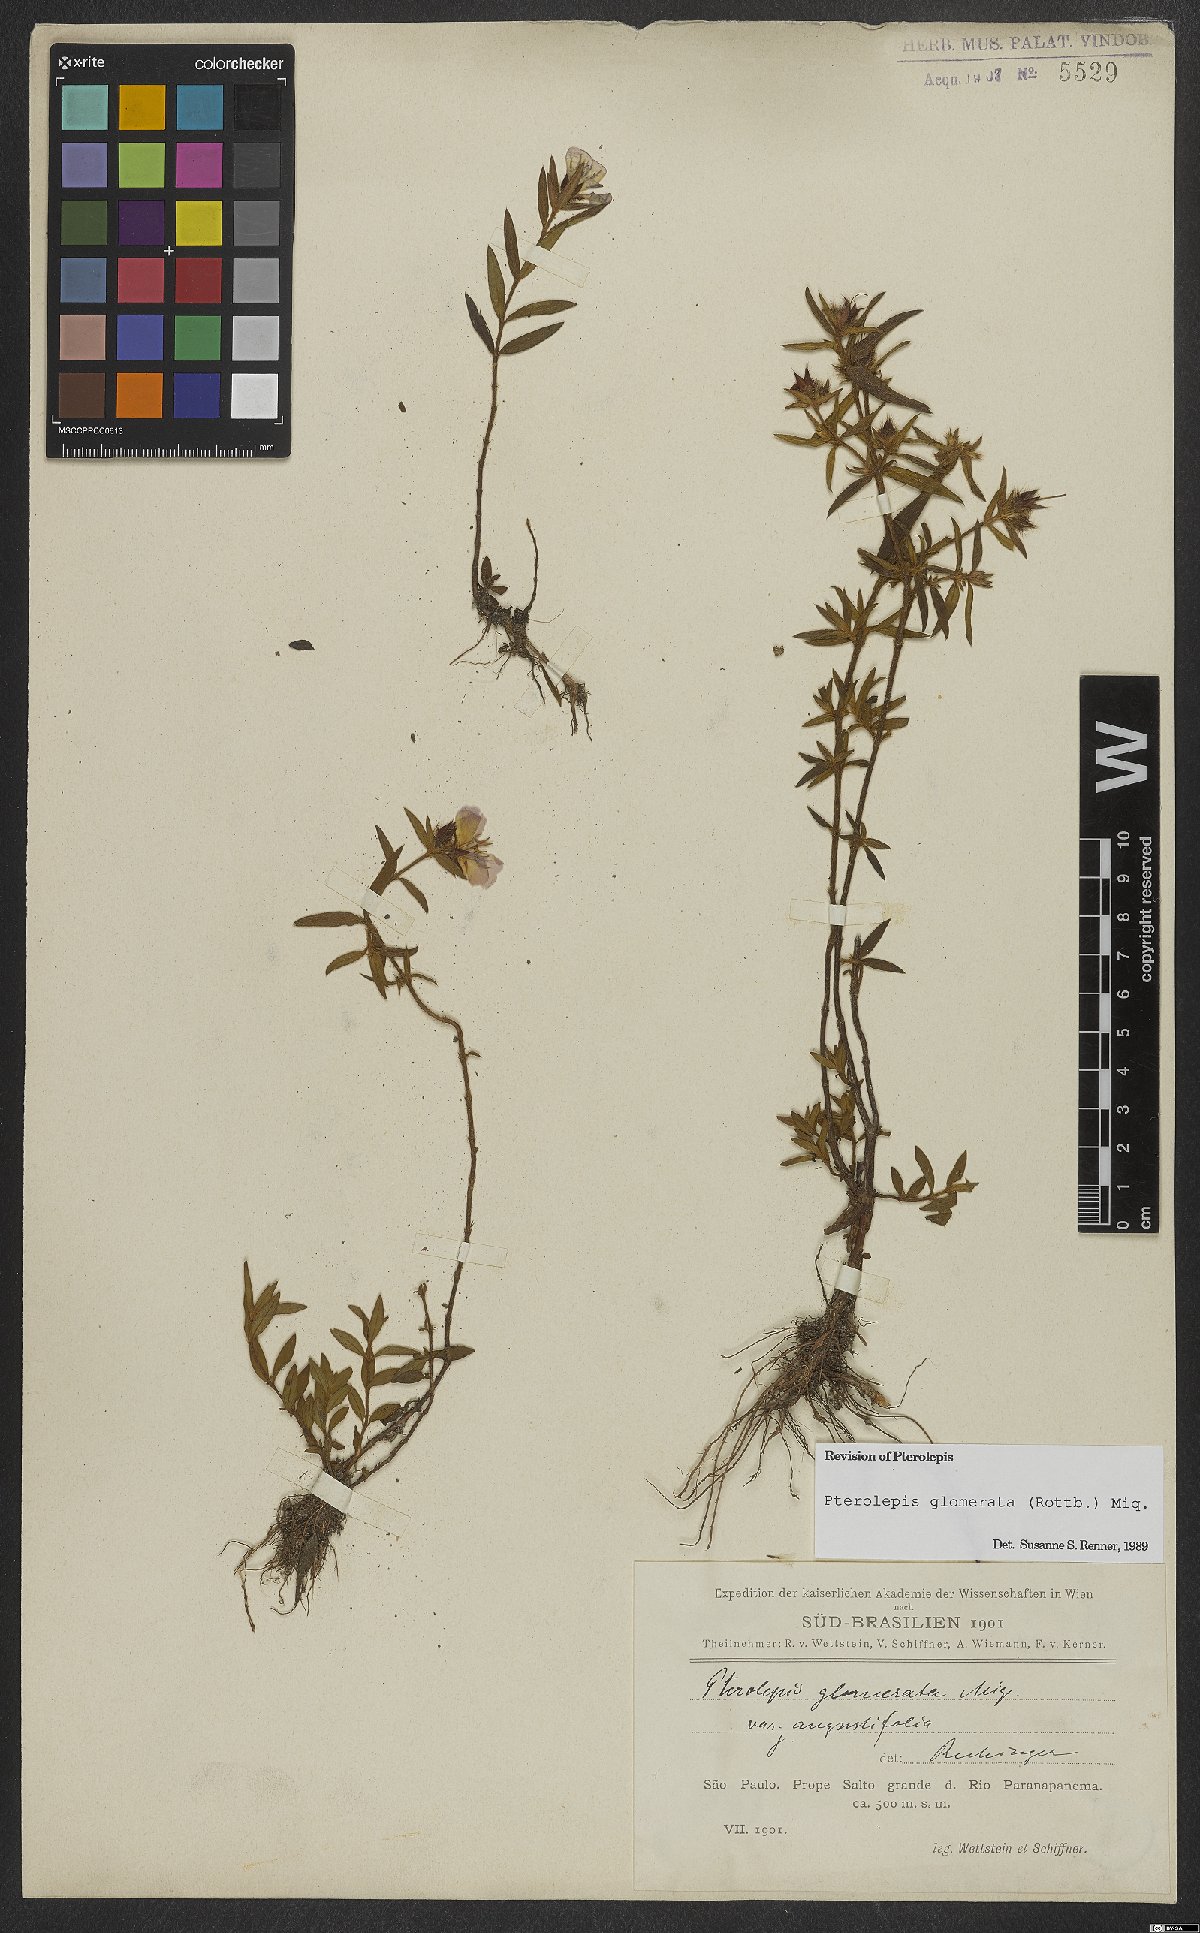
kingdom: Plantae
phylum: Tracheophyta
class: Magnoliopsida
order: Myrtales
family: Melastomataceae
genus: Pterolepis
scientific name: Pterolepis glomerata
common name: False meadowbeauty
